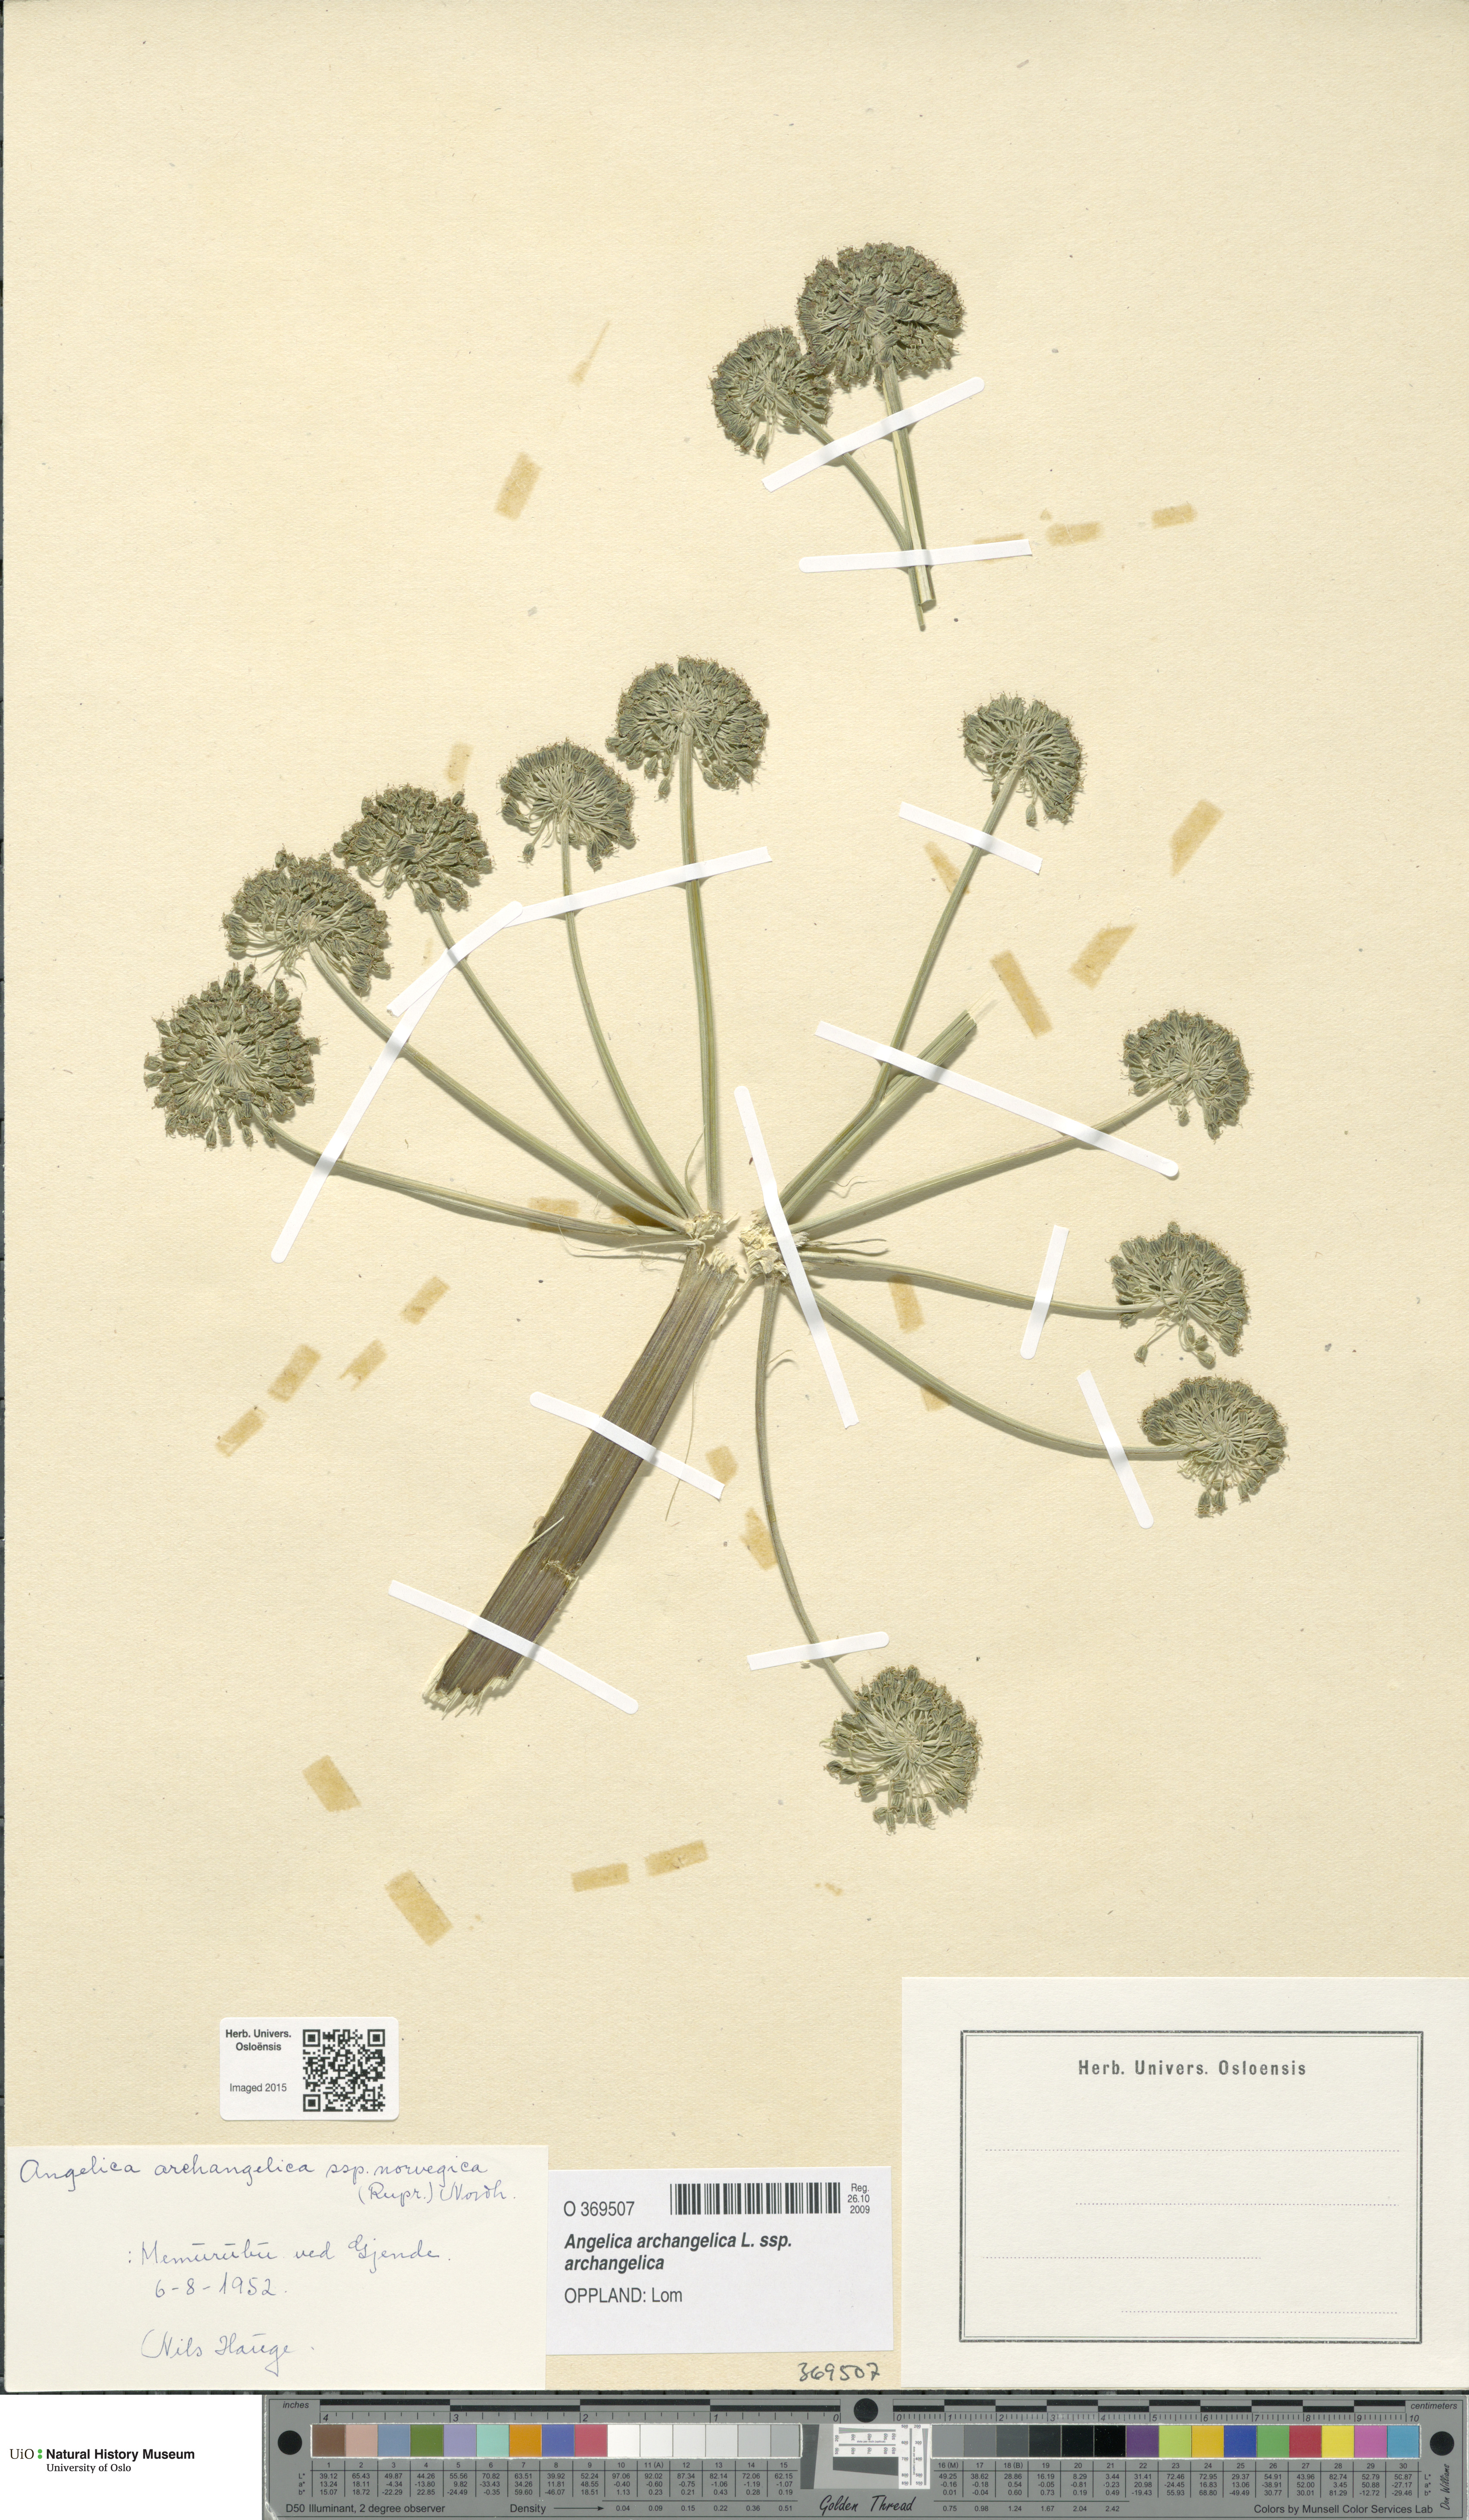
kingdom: Plantae
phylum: Tracheophyta
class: Magnoliopsida
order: Apiales
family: Apiaceae
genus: Angelica
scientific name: Angelica archangelica
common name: Garden angelica
